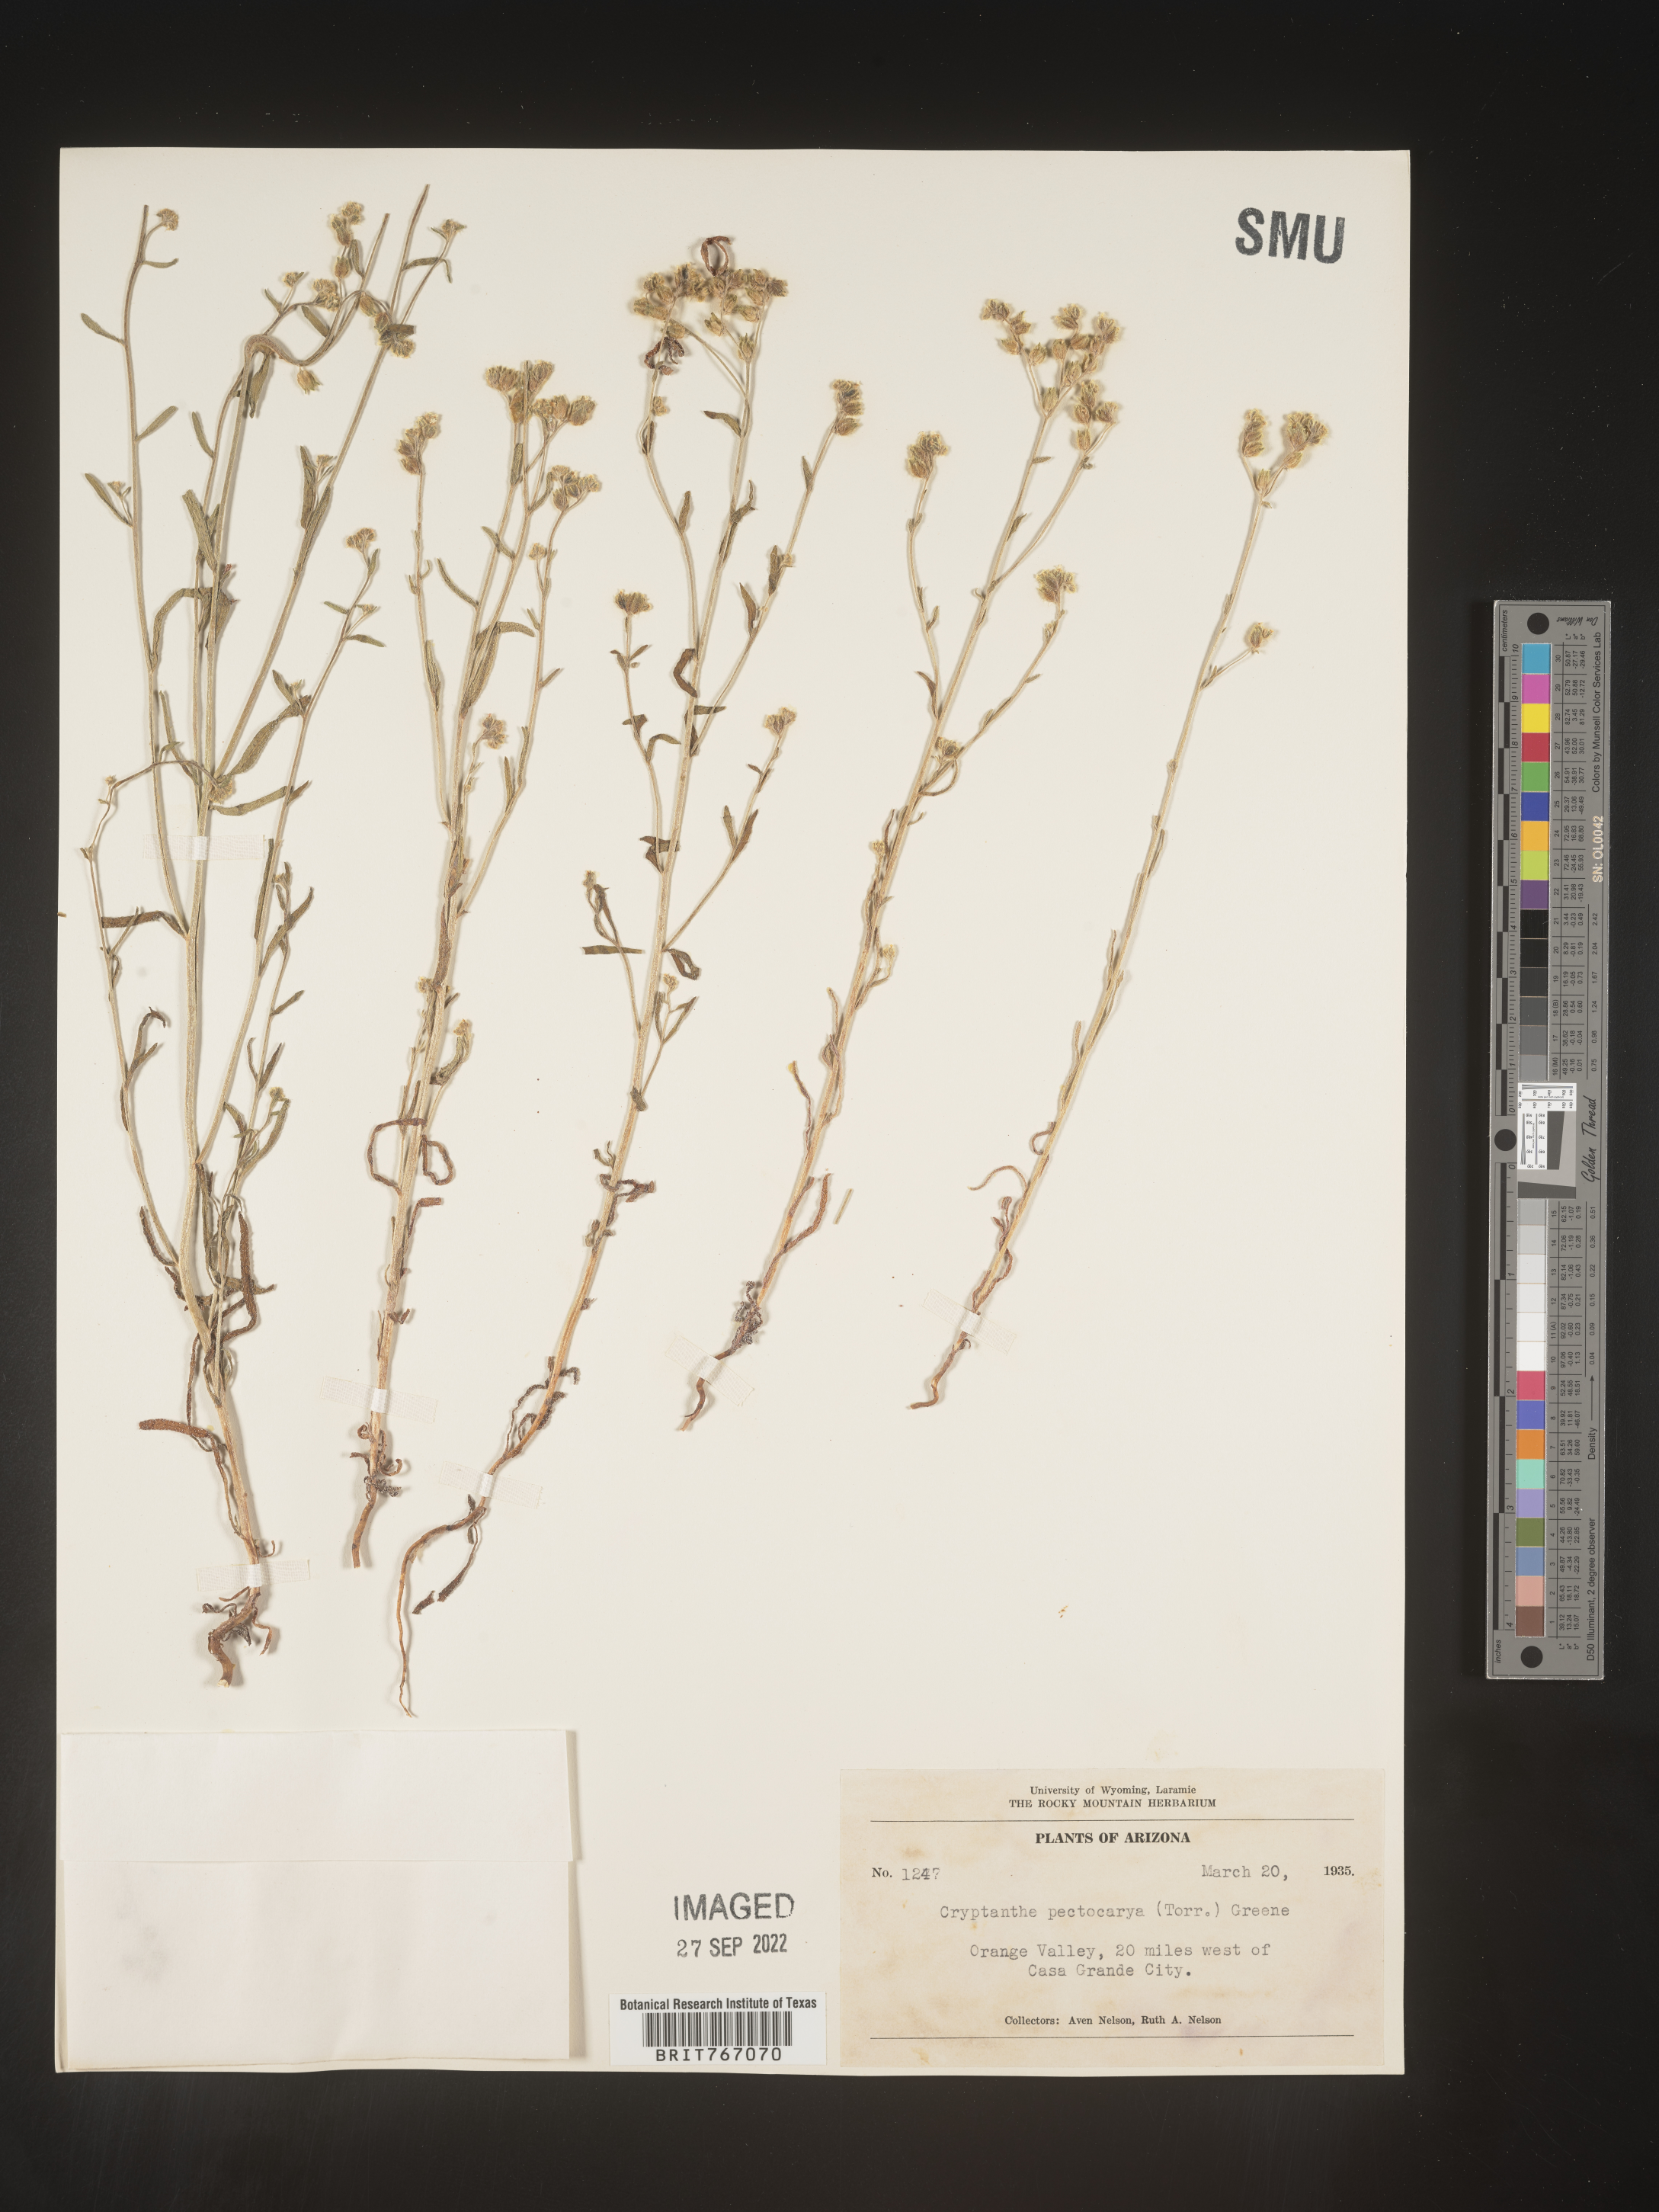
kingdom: Plantae
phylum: Tracheophyta
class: Magnoliopsida
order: Boraginales
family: Boraginaceae
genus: Cryptantha
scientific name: Cryptantha pterocarya
